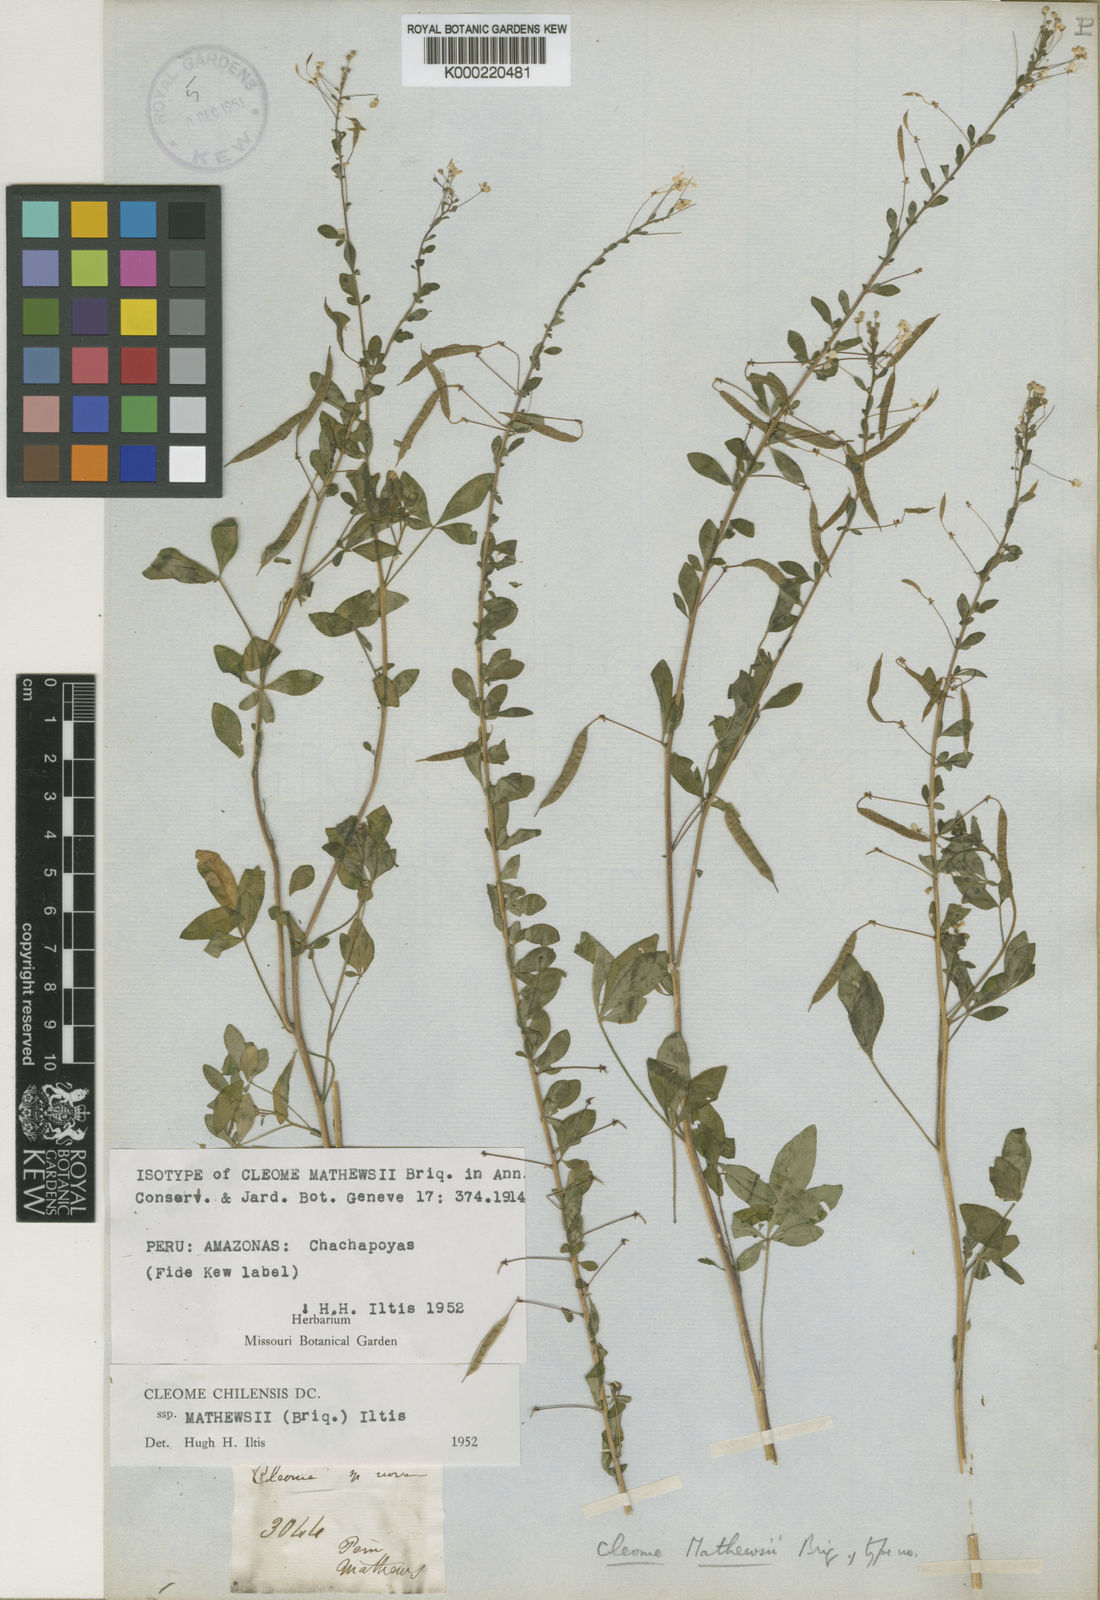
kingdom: Plantae
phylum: Tracheophyta
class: Magnoliopsida
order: Brassicales
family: Cleomaceae
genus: Andinocleome
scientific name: Andinocleome mathewsii
